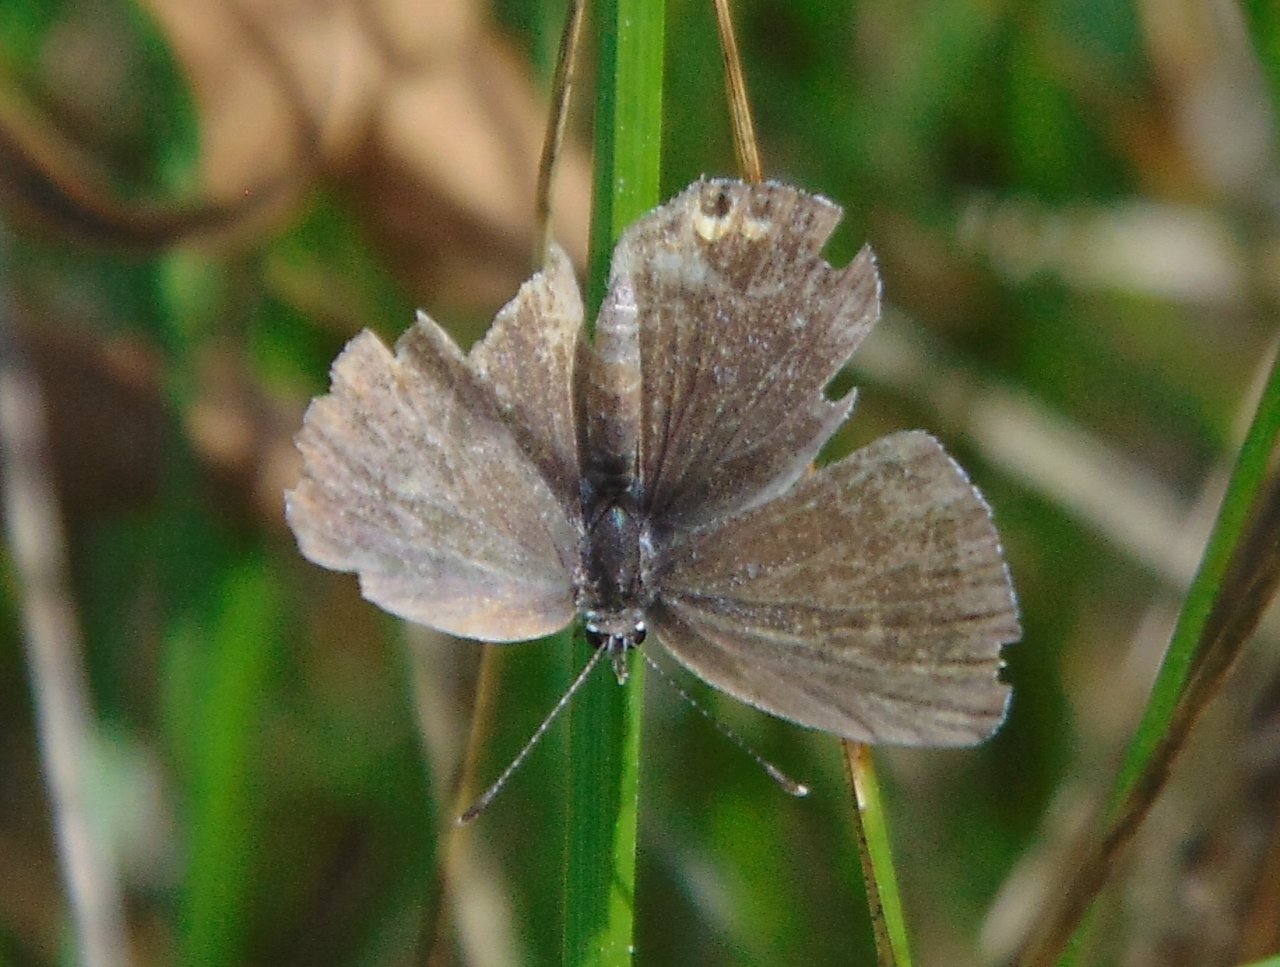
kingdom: Animalia
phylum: Arthropoda
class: Insecta
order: Lepidoptera
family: Lycaenidae
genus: Elkalyce
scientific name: Elkalyce comyntas
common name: Eastern Tailed-Blue
